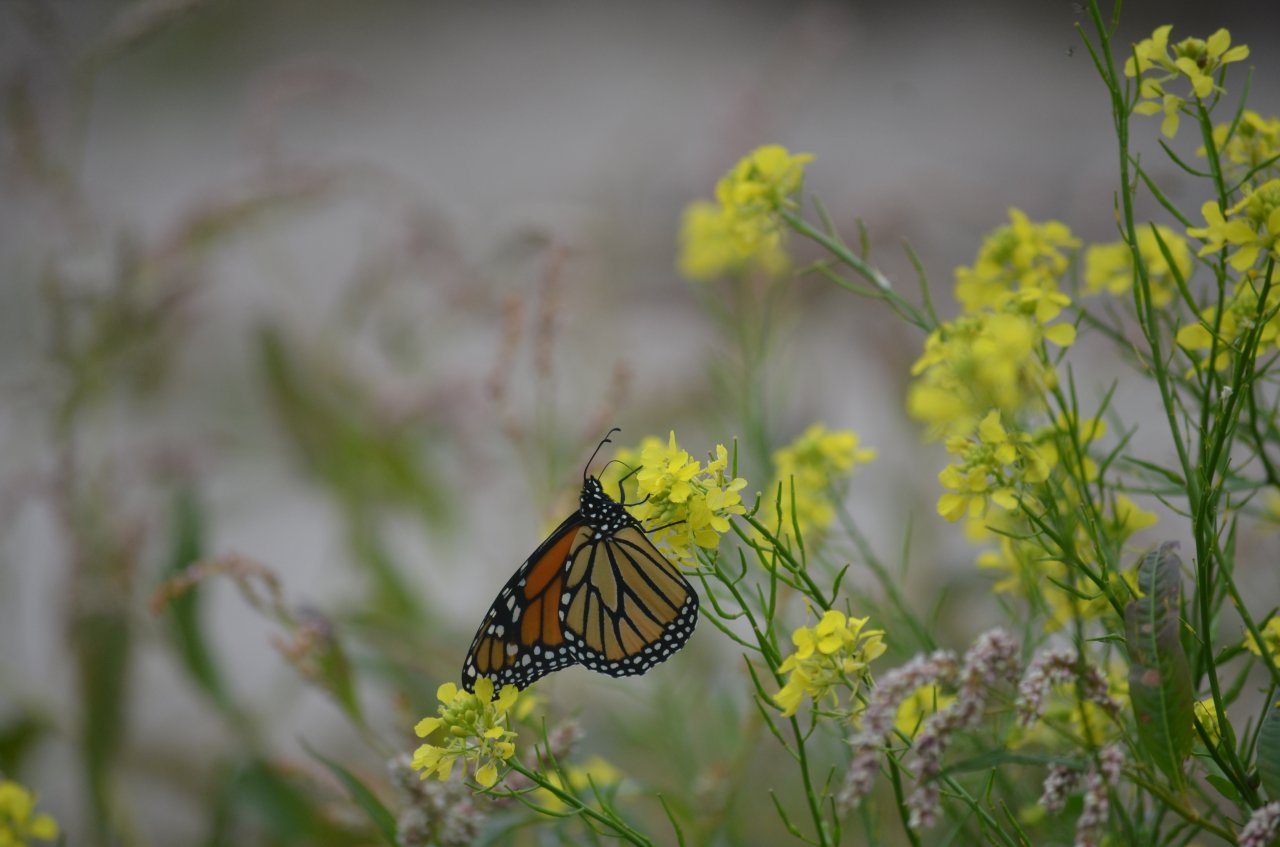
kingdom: Animalia
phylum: Arthropoda
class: Insecta
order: Lepidoptera
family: Nymphalidae
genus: Danaus
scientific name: Danaus plexippus
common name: Monarch
